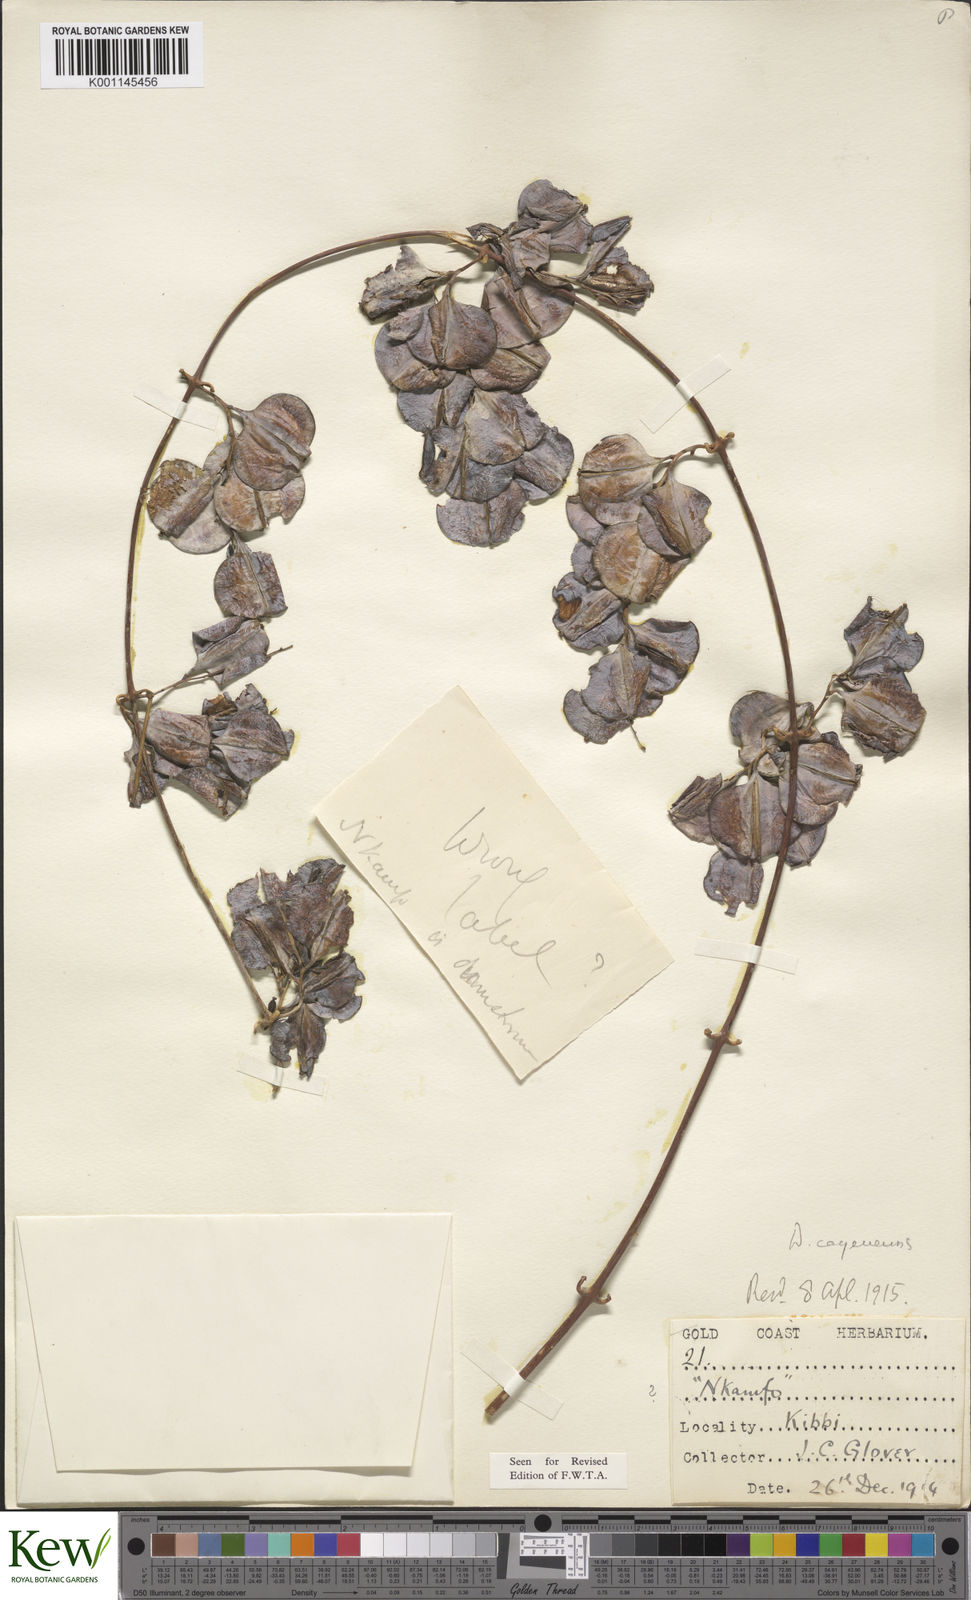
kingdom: Plantae
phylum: Tracheophyta
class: Liliopsida
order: Dioscoreales
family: Dioscoreaceae
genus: Dioscorea
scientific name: Dioscorea dumetorum
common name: African bitter yam
